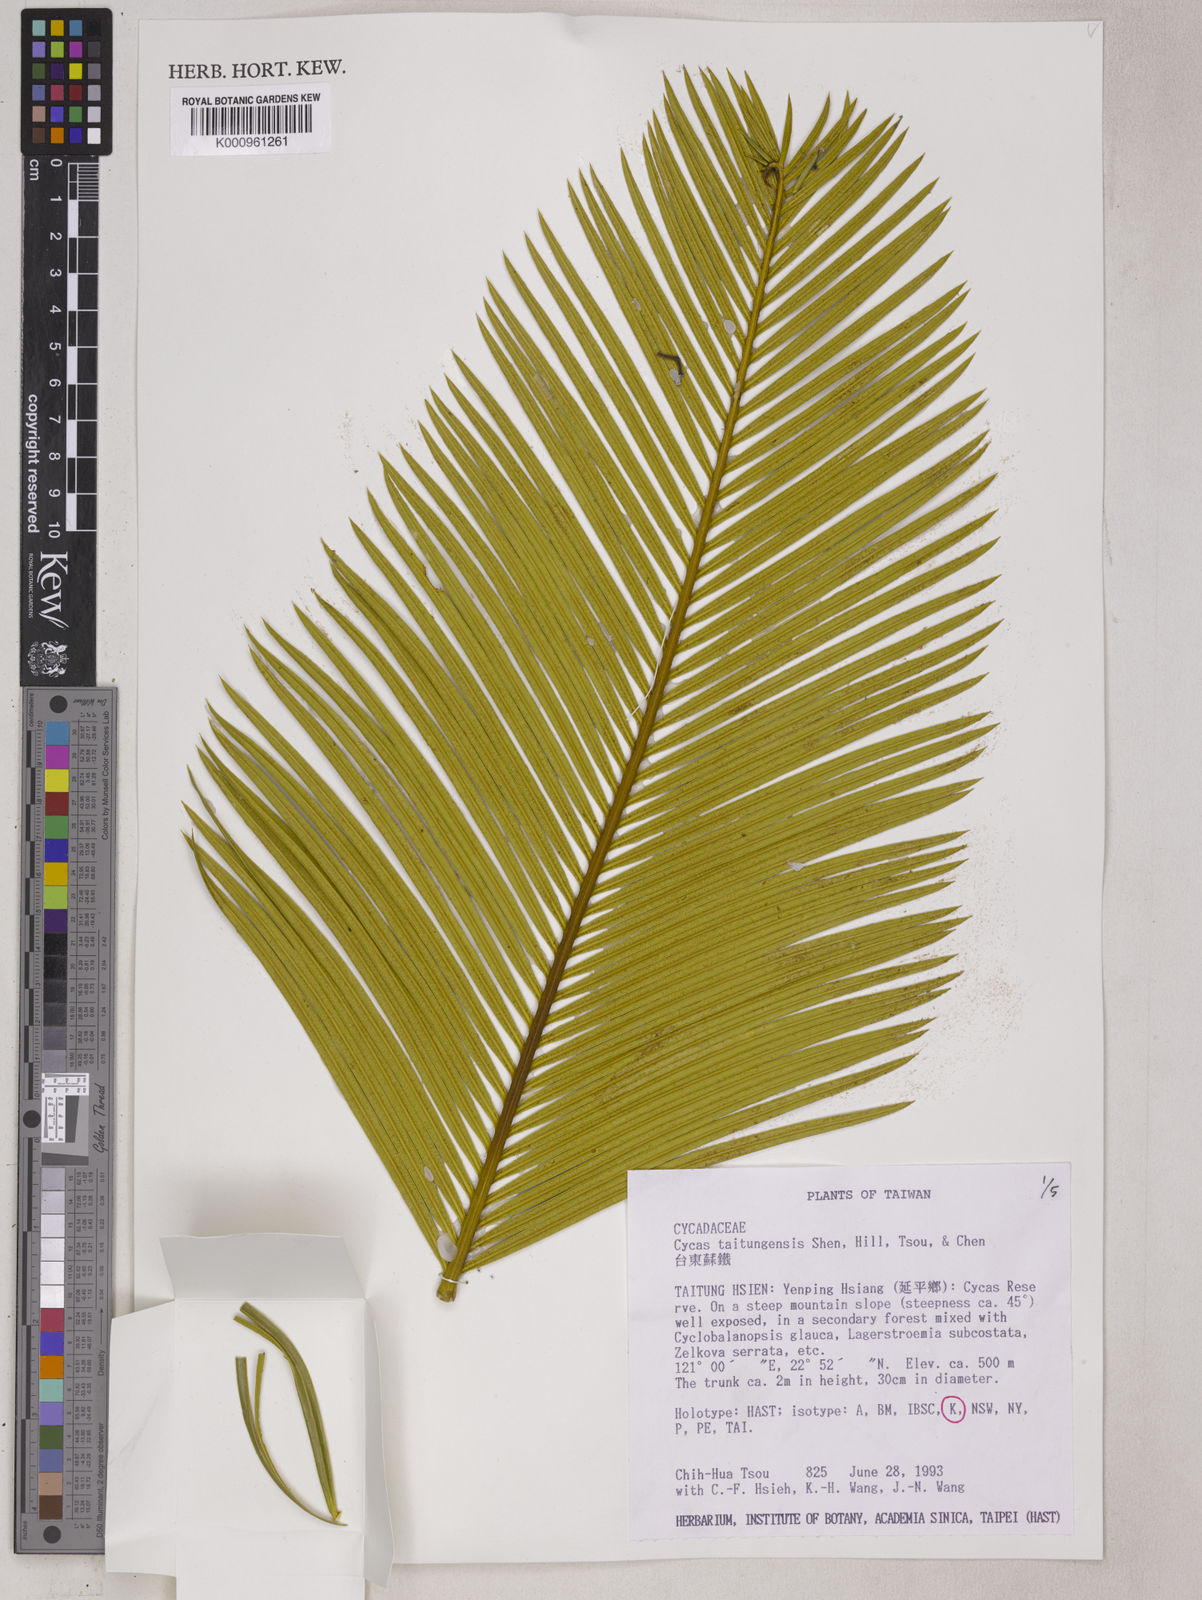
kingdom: Plantae
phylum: Tracheophyta
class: Cycadopsida
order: Cycadales
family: Cycadaceae
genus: Cycas
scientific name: Cycas
